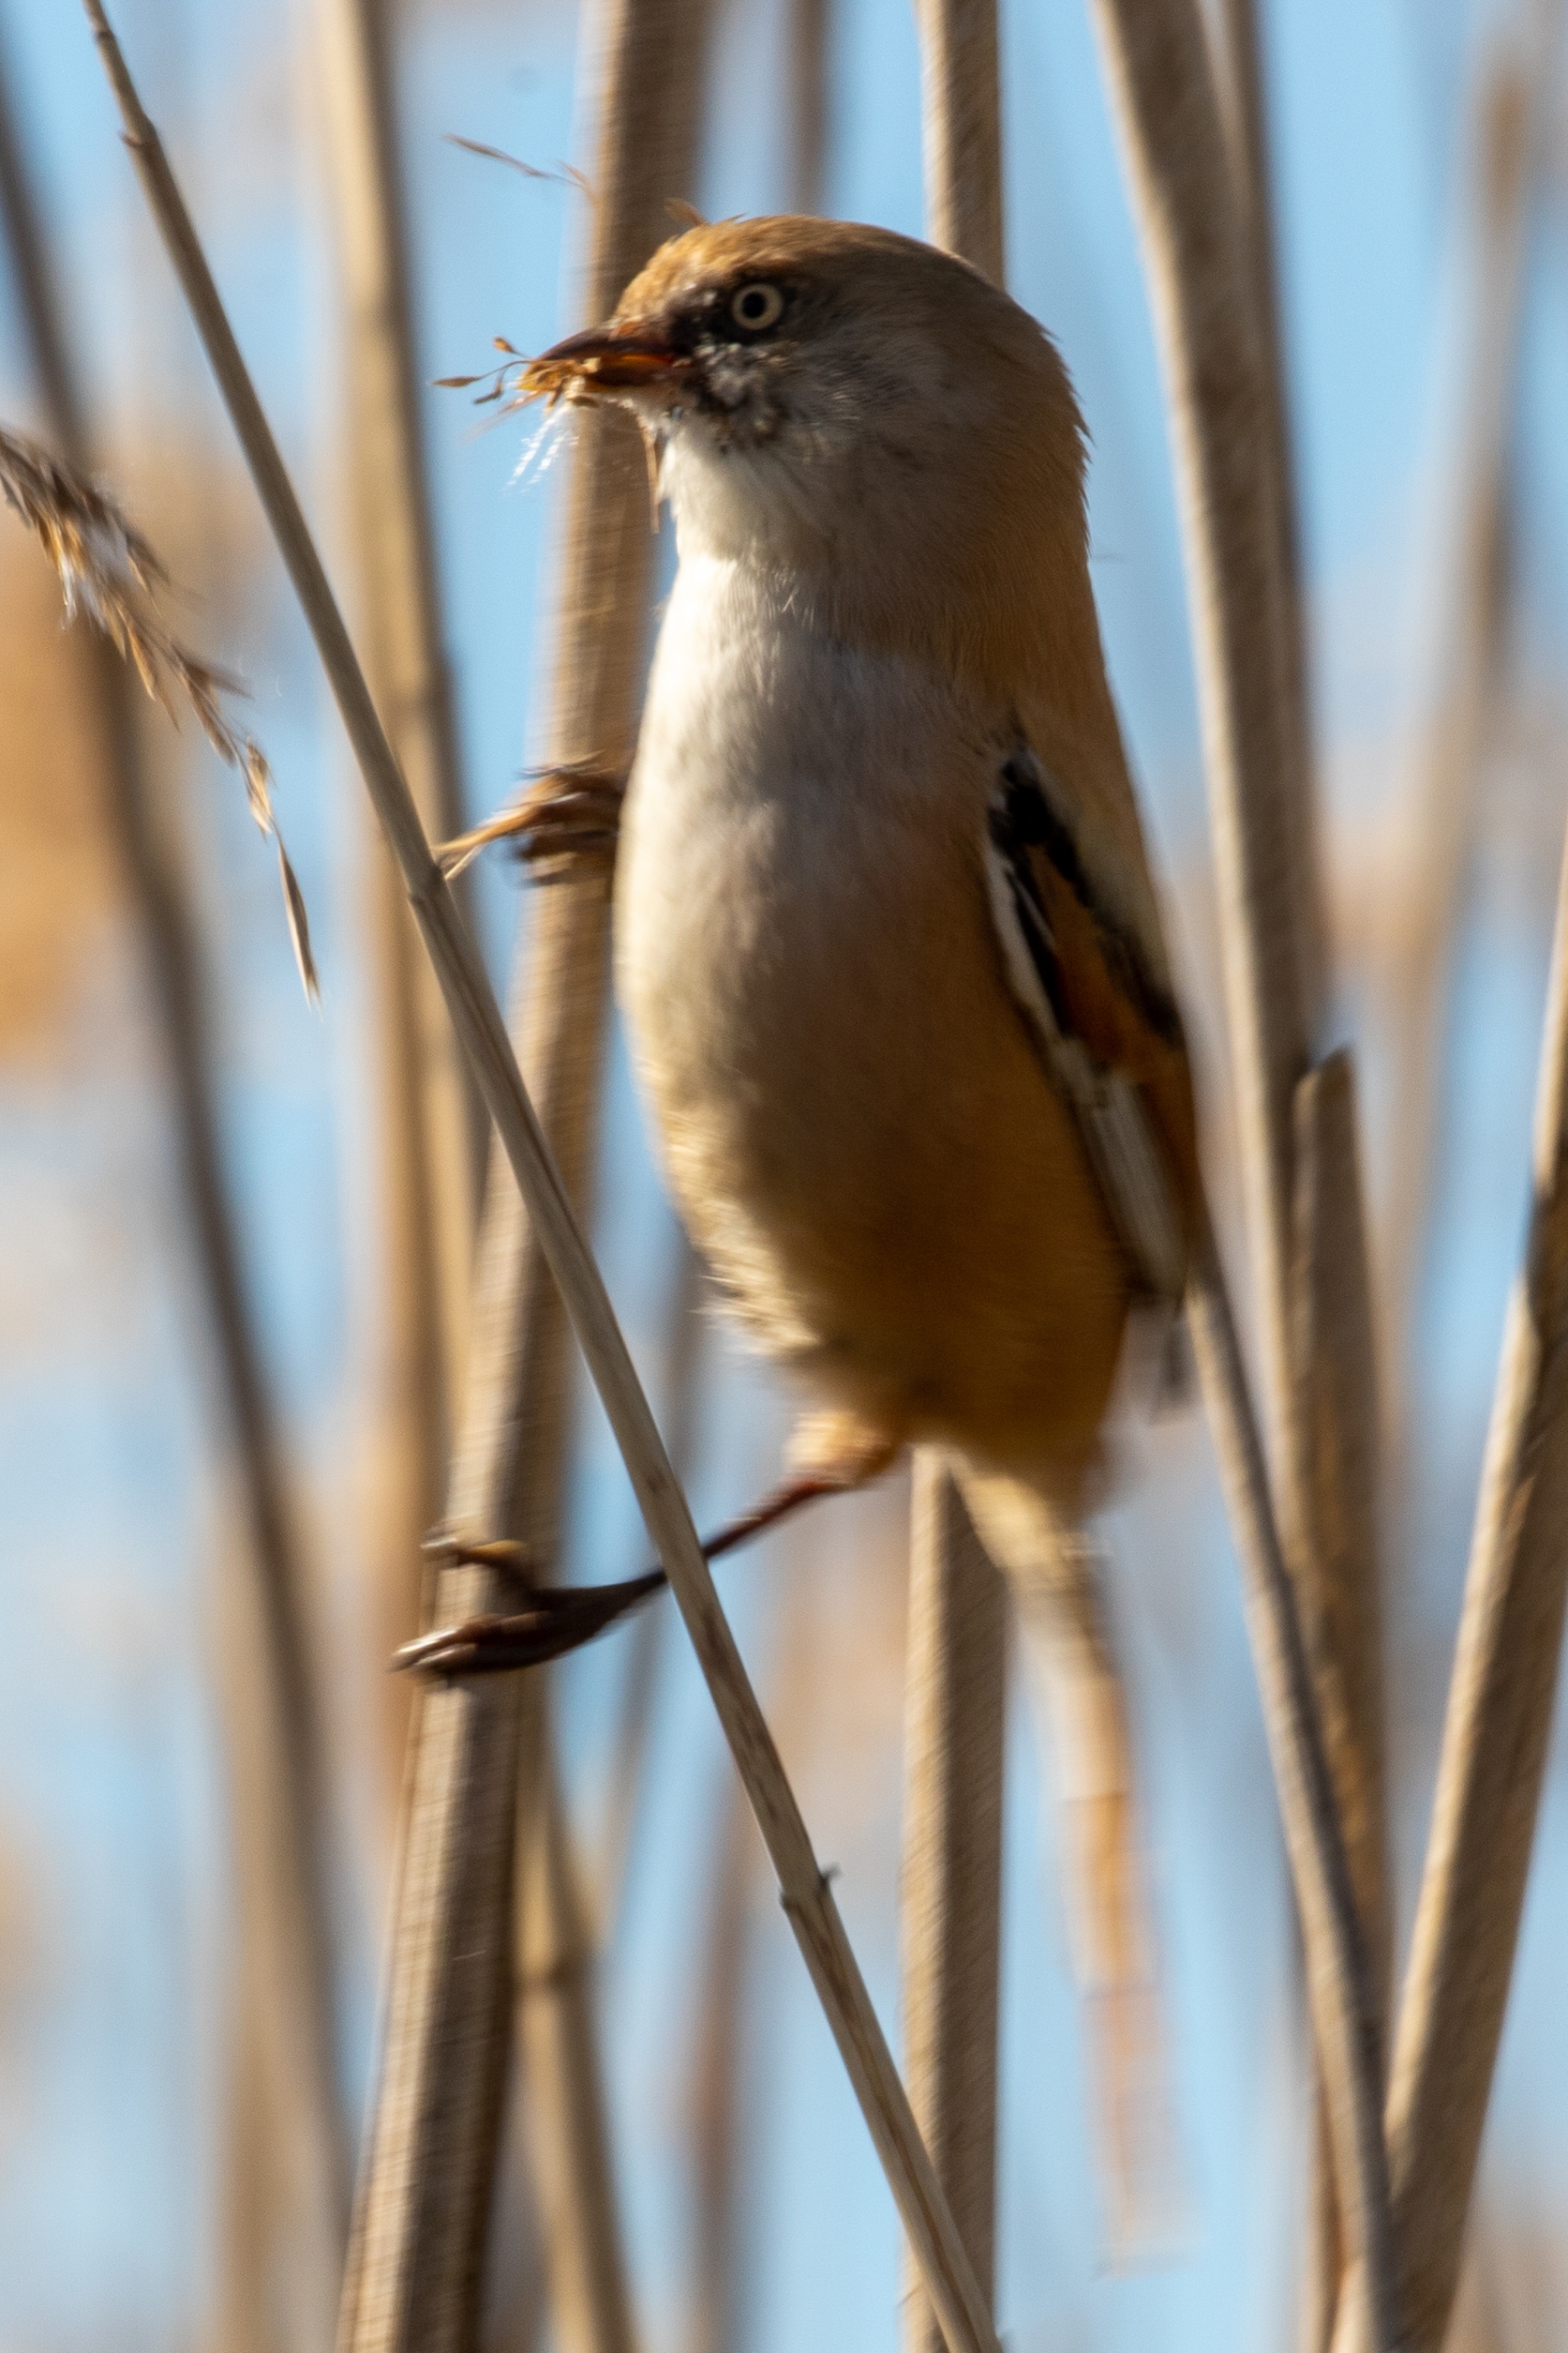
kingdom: Animalia
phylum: Chordata
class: Aves
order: Passeriformes
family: Panuridae
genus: Panurus
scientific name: Panurus biarmicus
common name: Skægmejse
